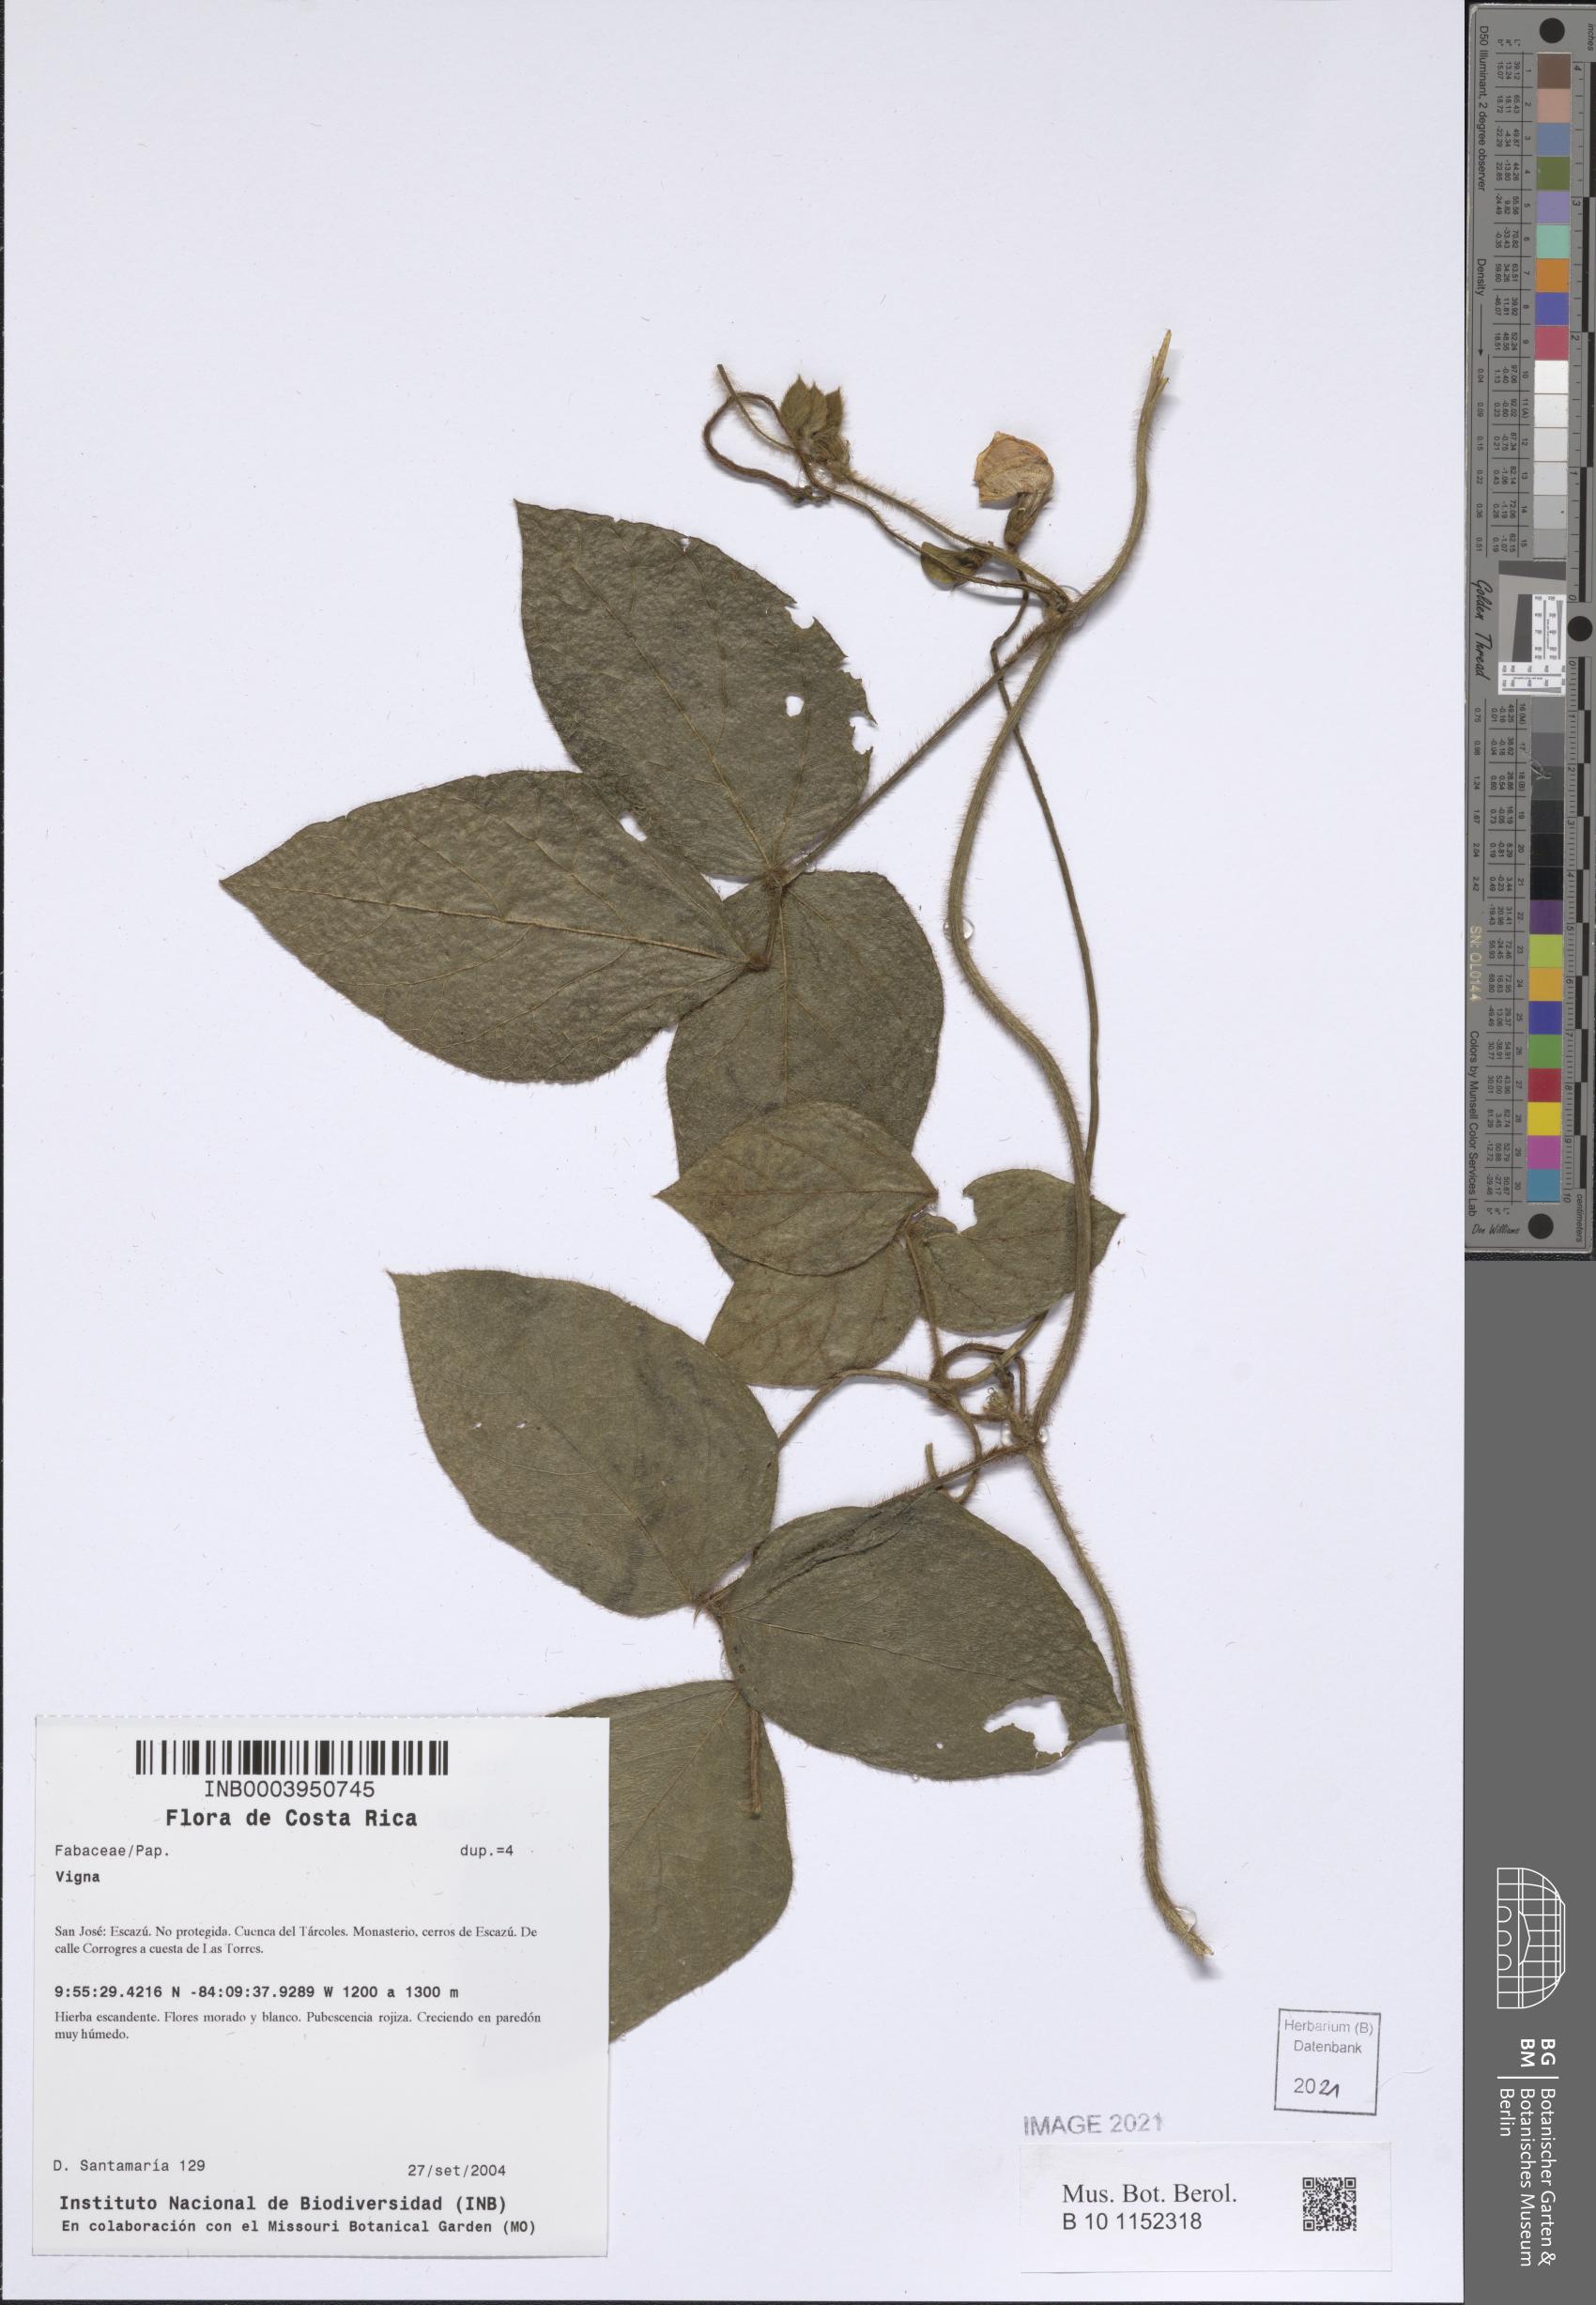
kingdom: Plantae
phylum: Tracheophyta
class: Magnoliopsida
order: Fabales
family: Fabaceae
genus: Vigna
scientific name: Vigna
